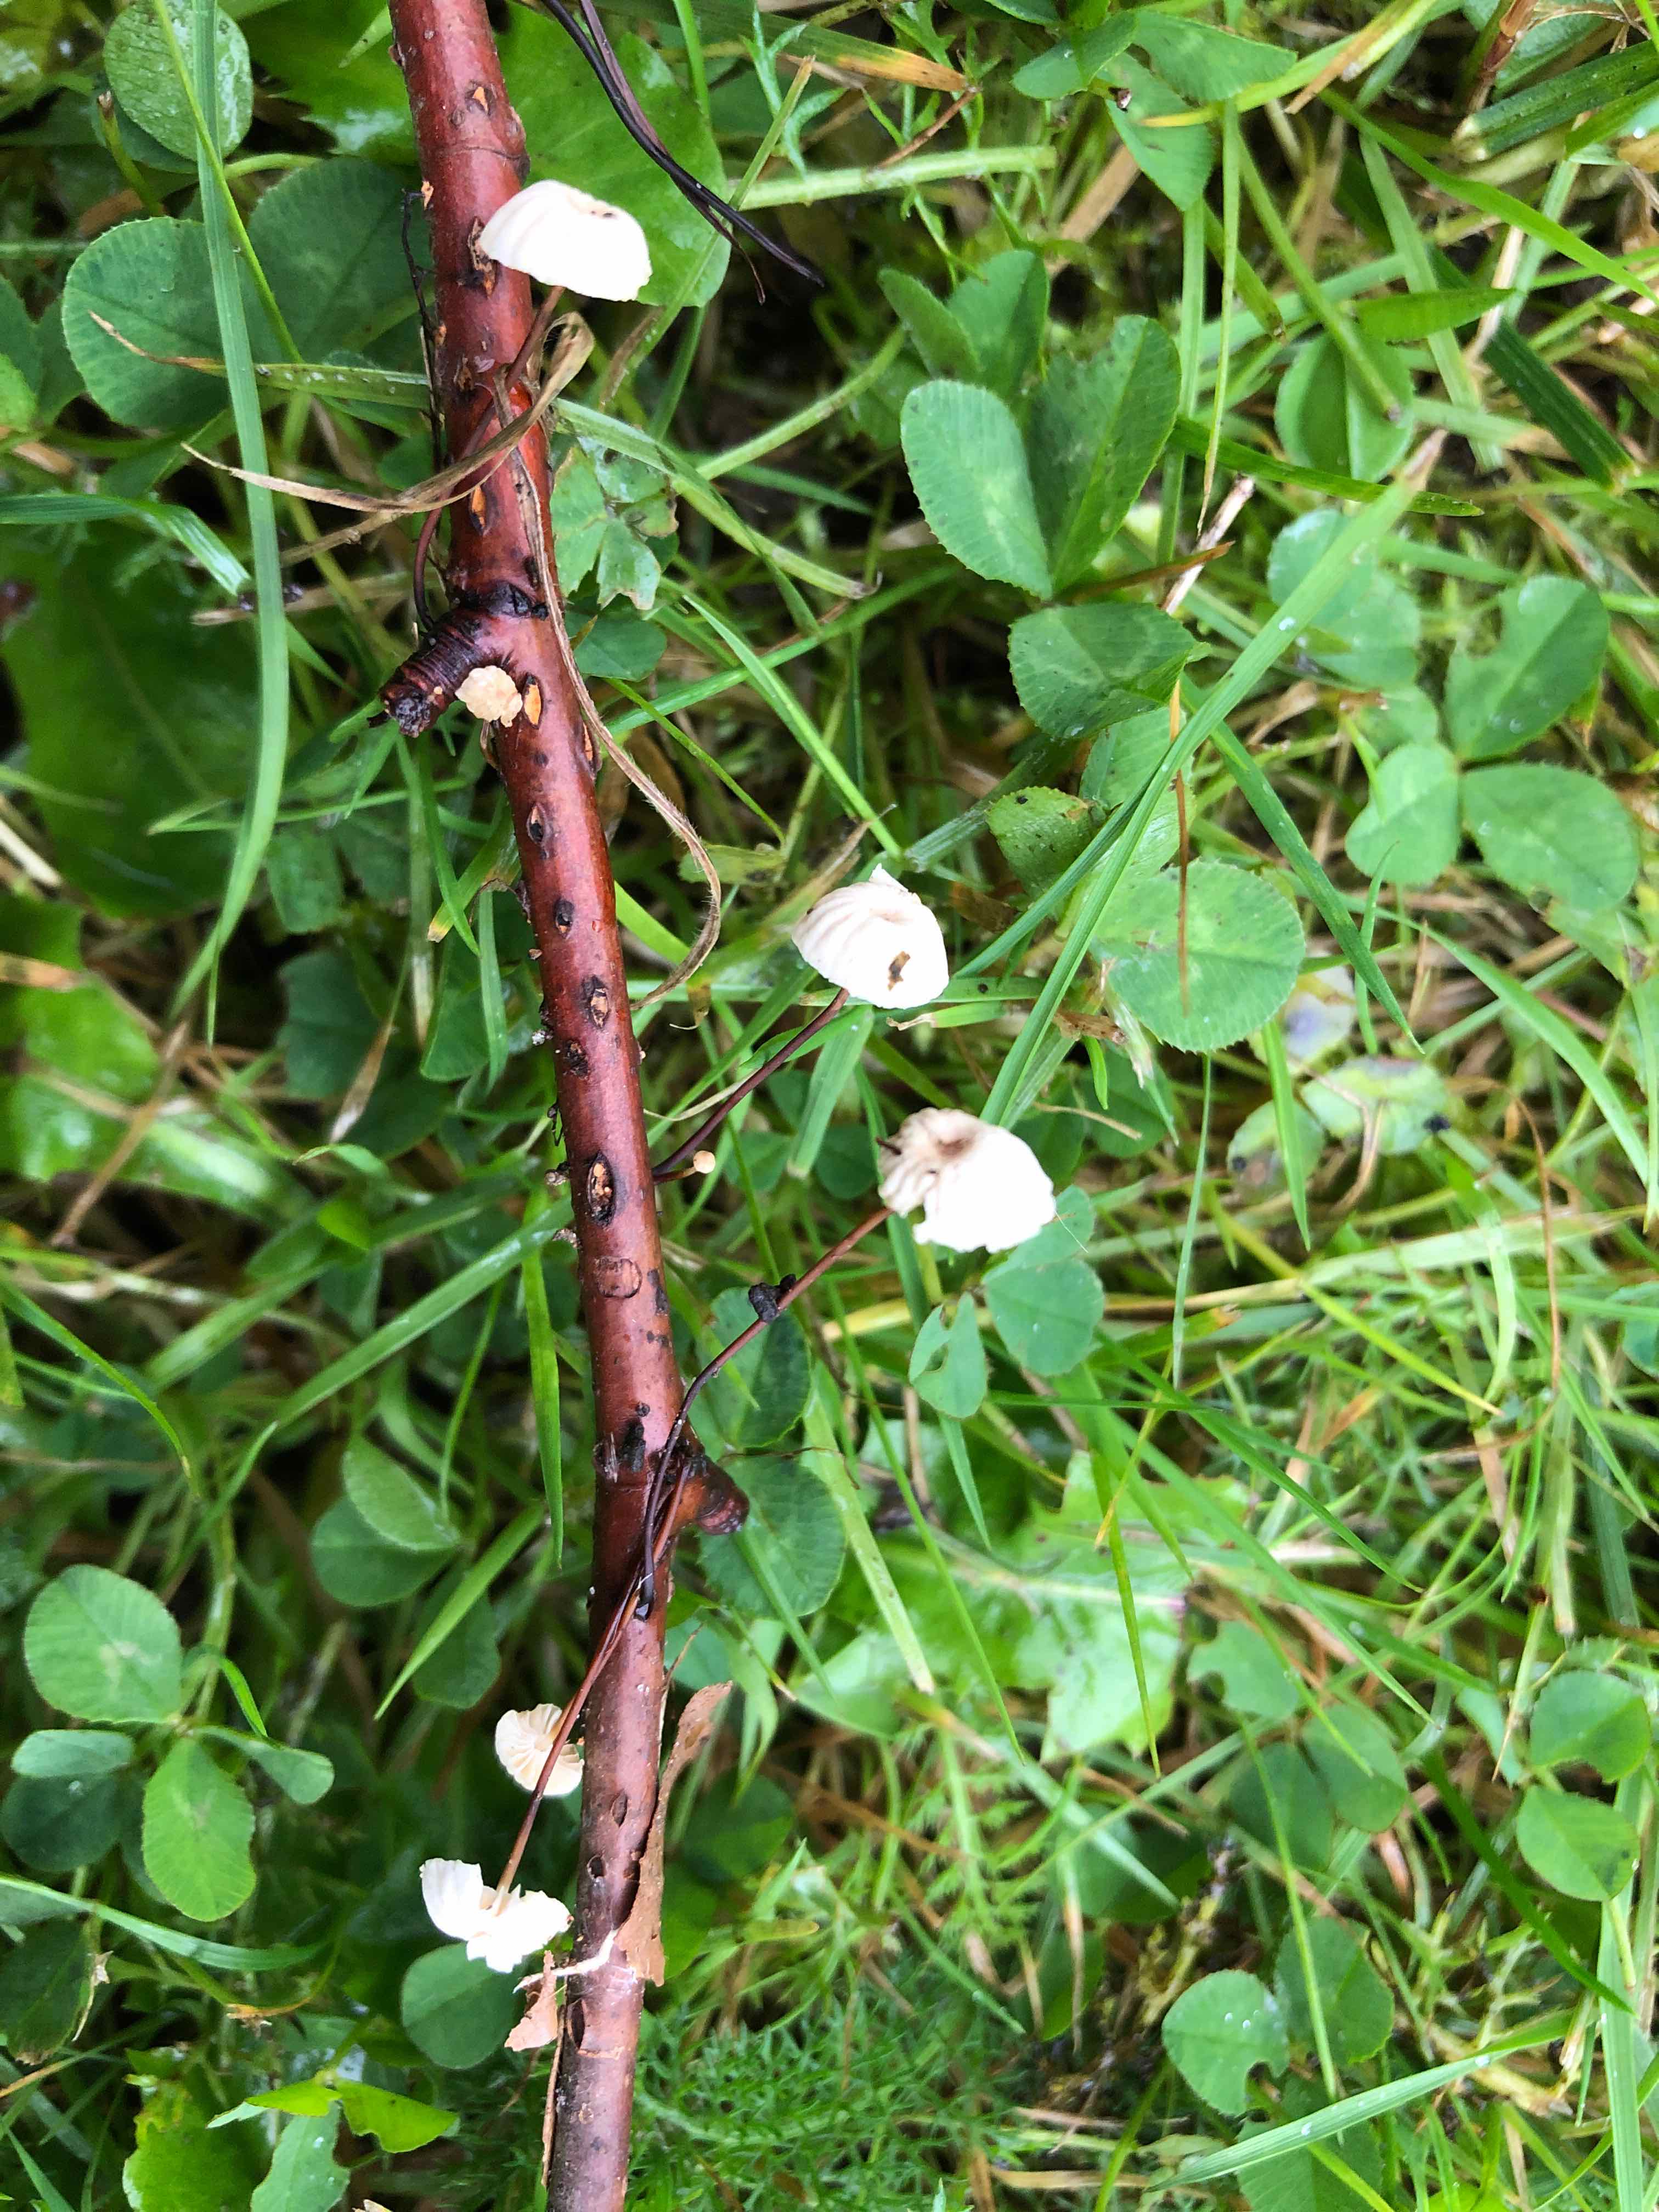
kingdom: Fungi
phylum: Basidiomycota
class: Agaricomycetes
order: Agaricales
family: Marasmiaceae
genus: Marasmius
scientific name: Marasmius rotula
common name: hjul-bruskhat
